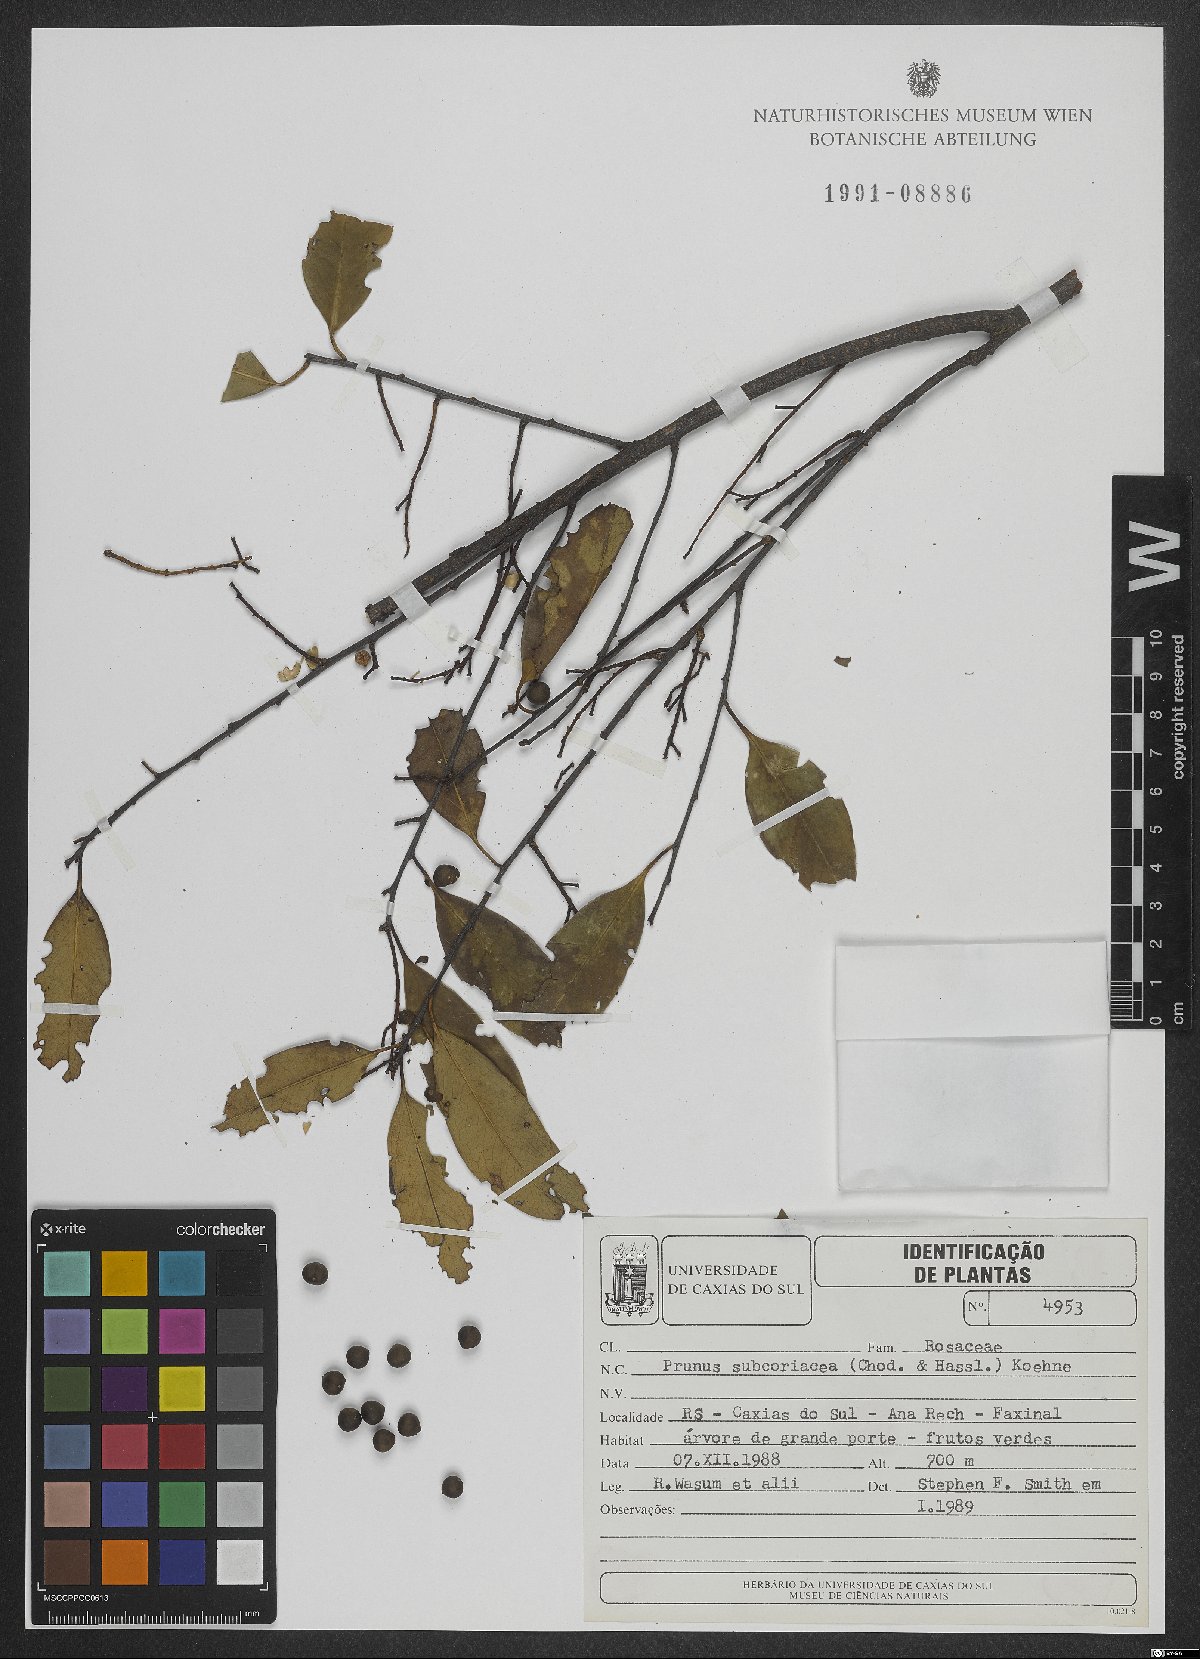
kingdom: Plantae
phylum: Tracheophyta
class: Magnoliopsida
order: Rosales
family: Rosaceae
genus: Prunus
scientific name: Prunus subcoriacea
